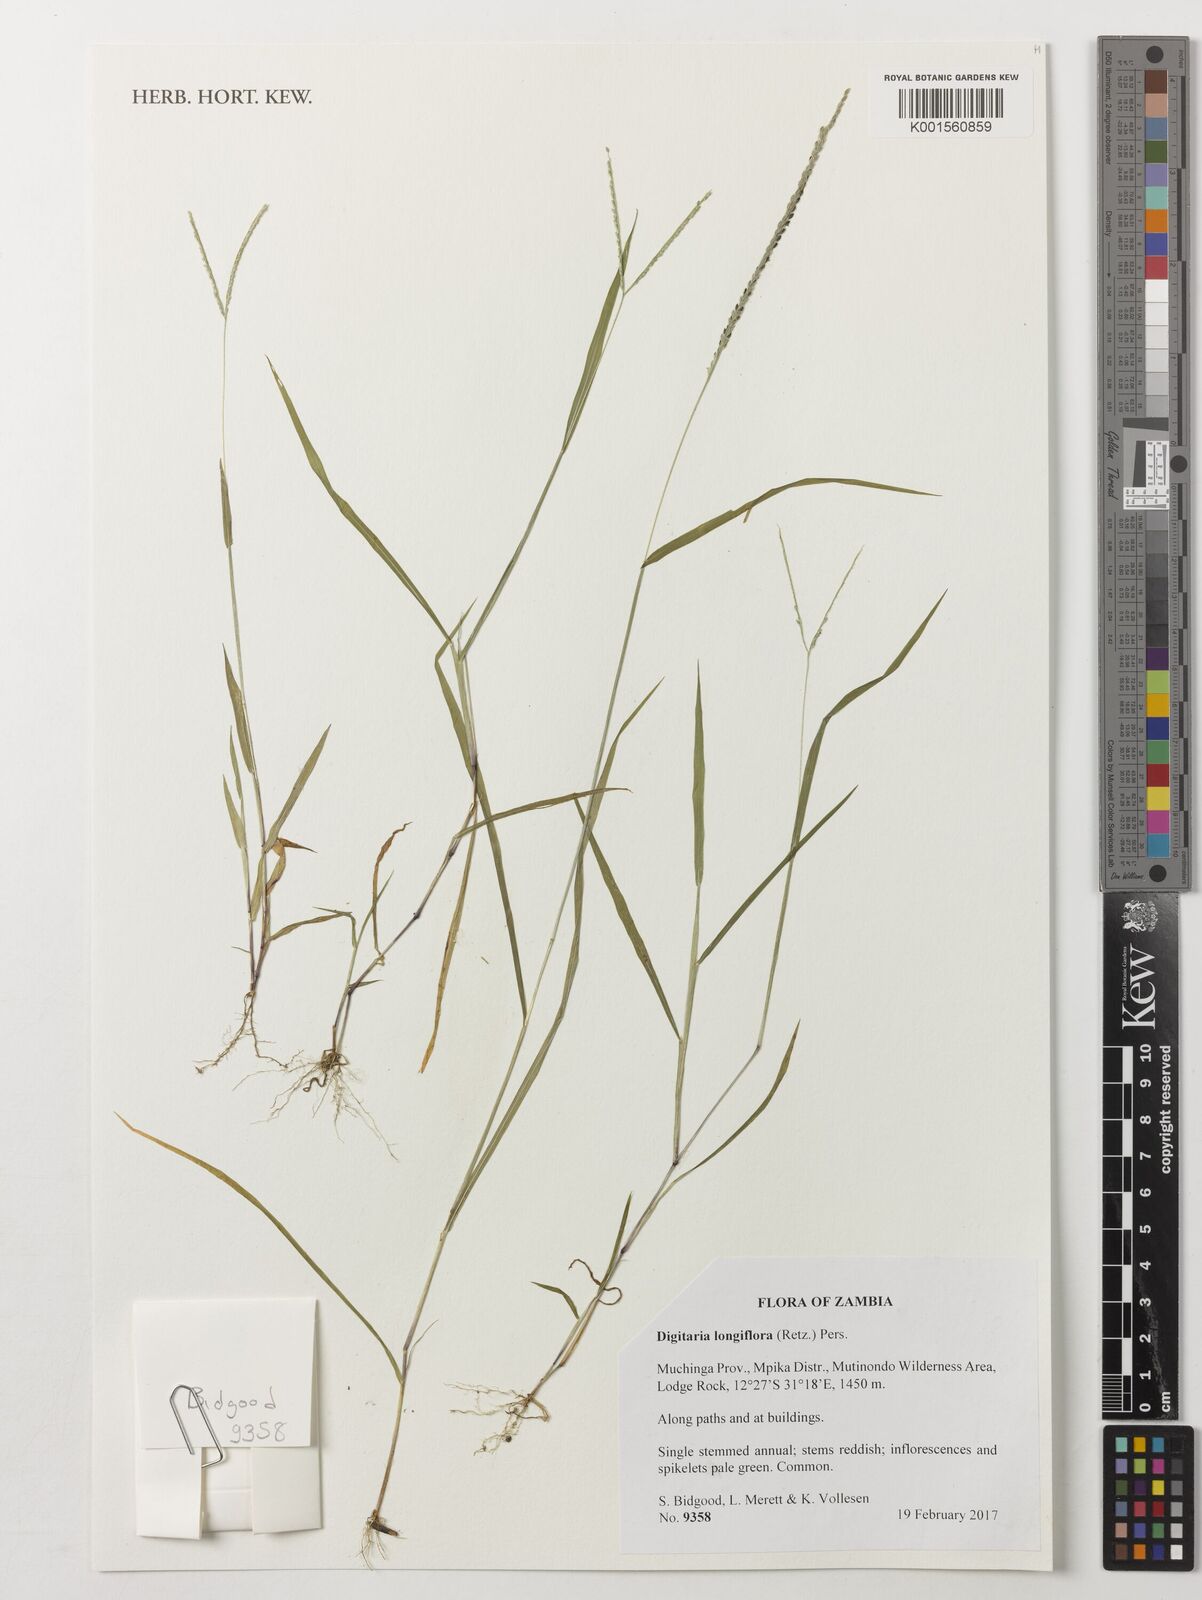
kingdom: Plantae
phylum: Tracheophyta
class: Liliopsida
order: Poales
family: Poaceae
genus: Digitaria
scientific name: Digitaria longiflora
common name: Wire crabgrass
